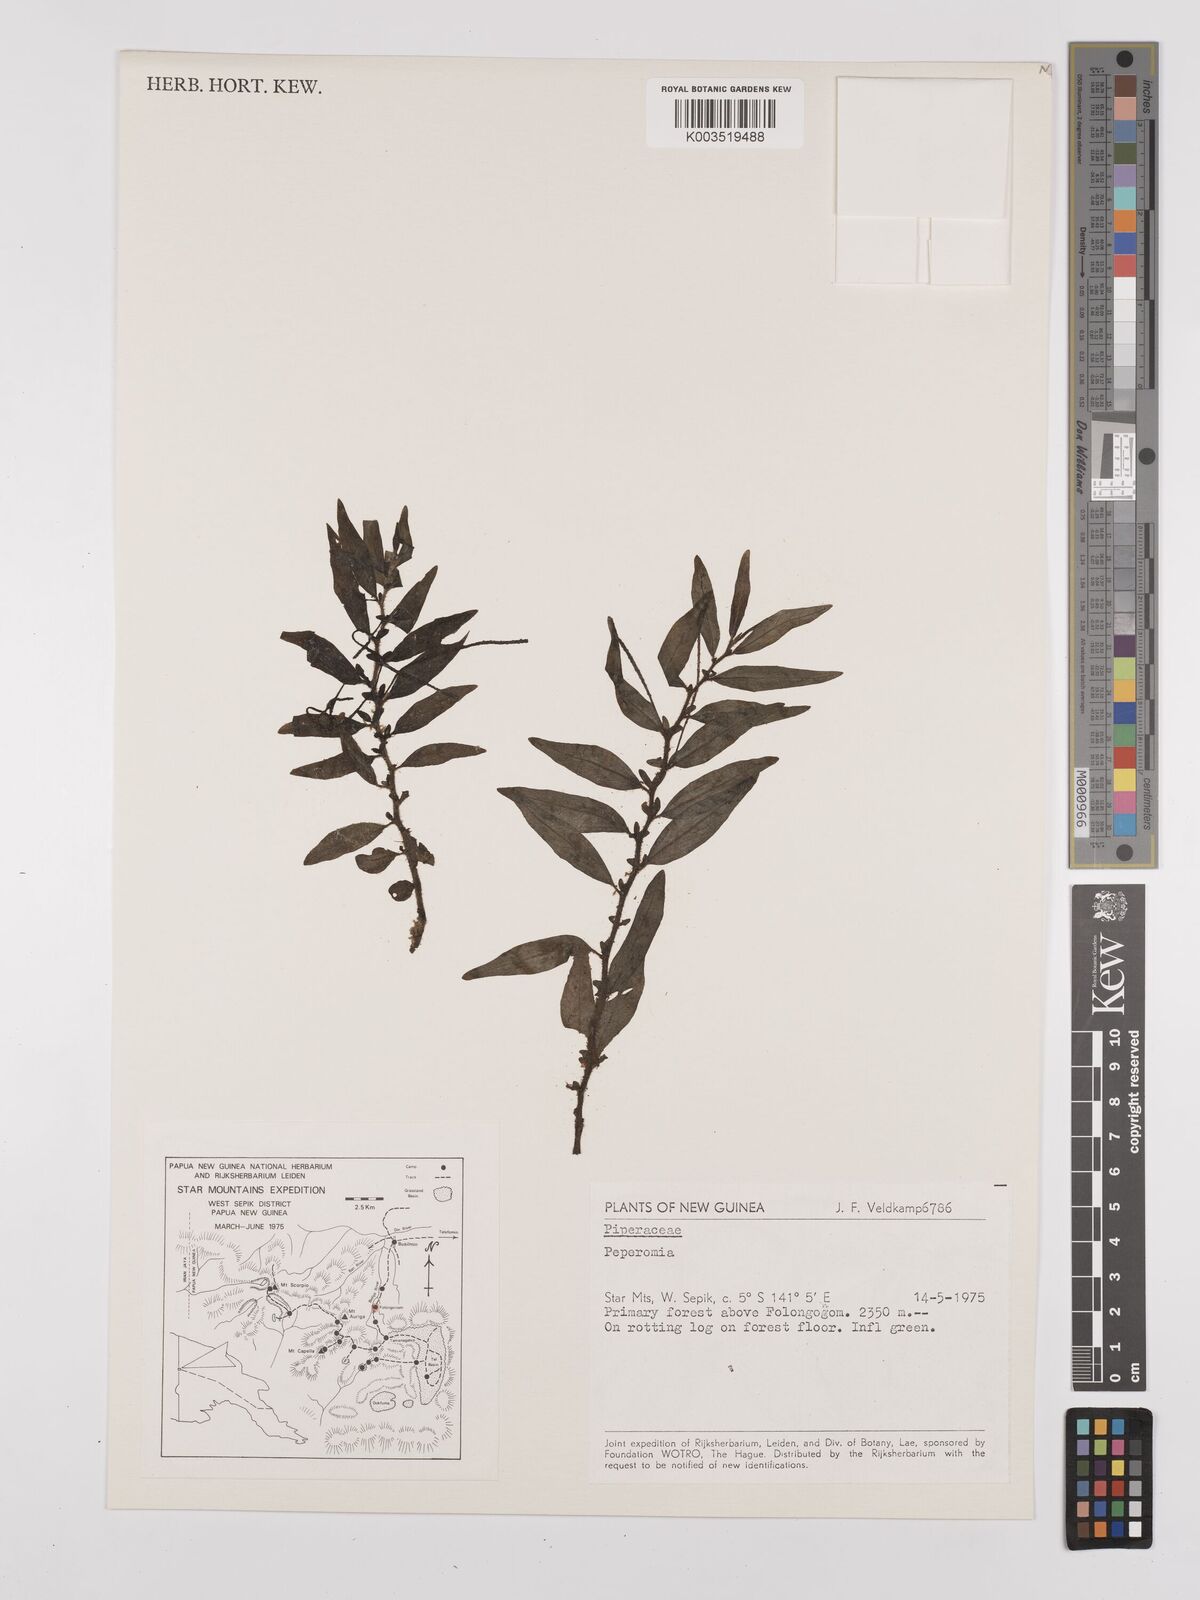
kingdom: Plantae
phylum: Tracheophyta
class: Magnoliopsida
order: Piperales
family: Piperaceae
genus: Peperomia
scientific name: Peperomia
